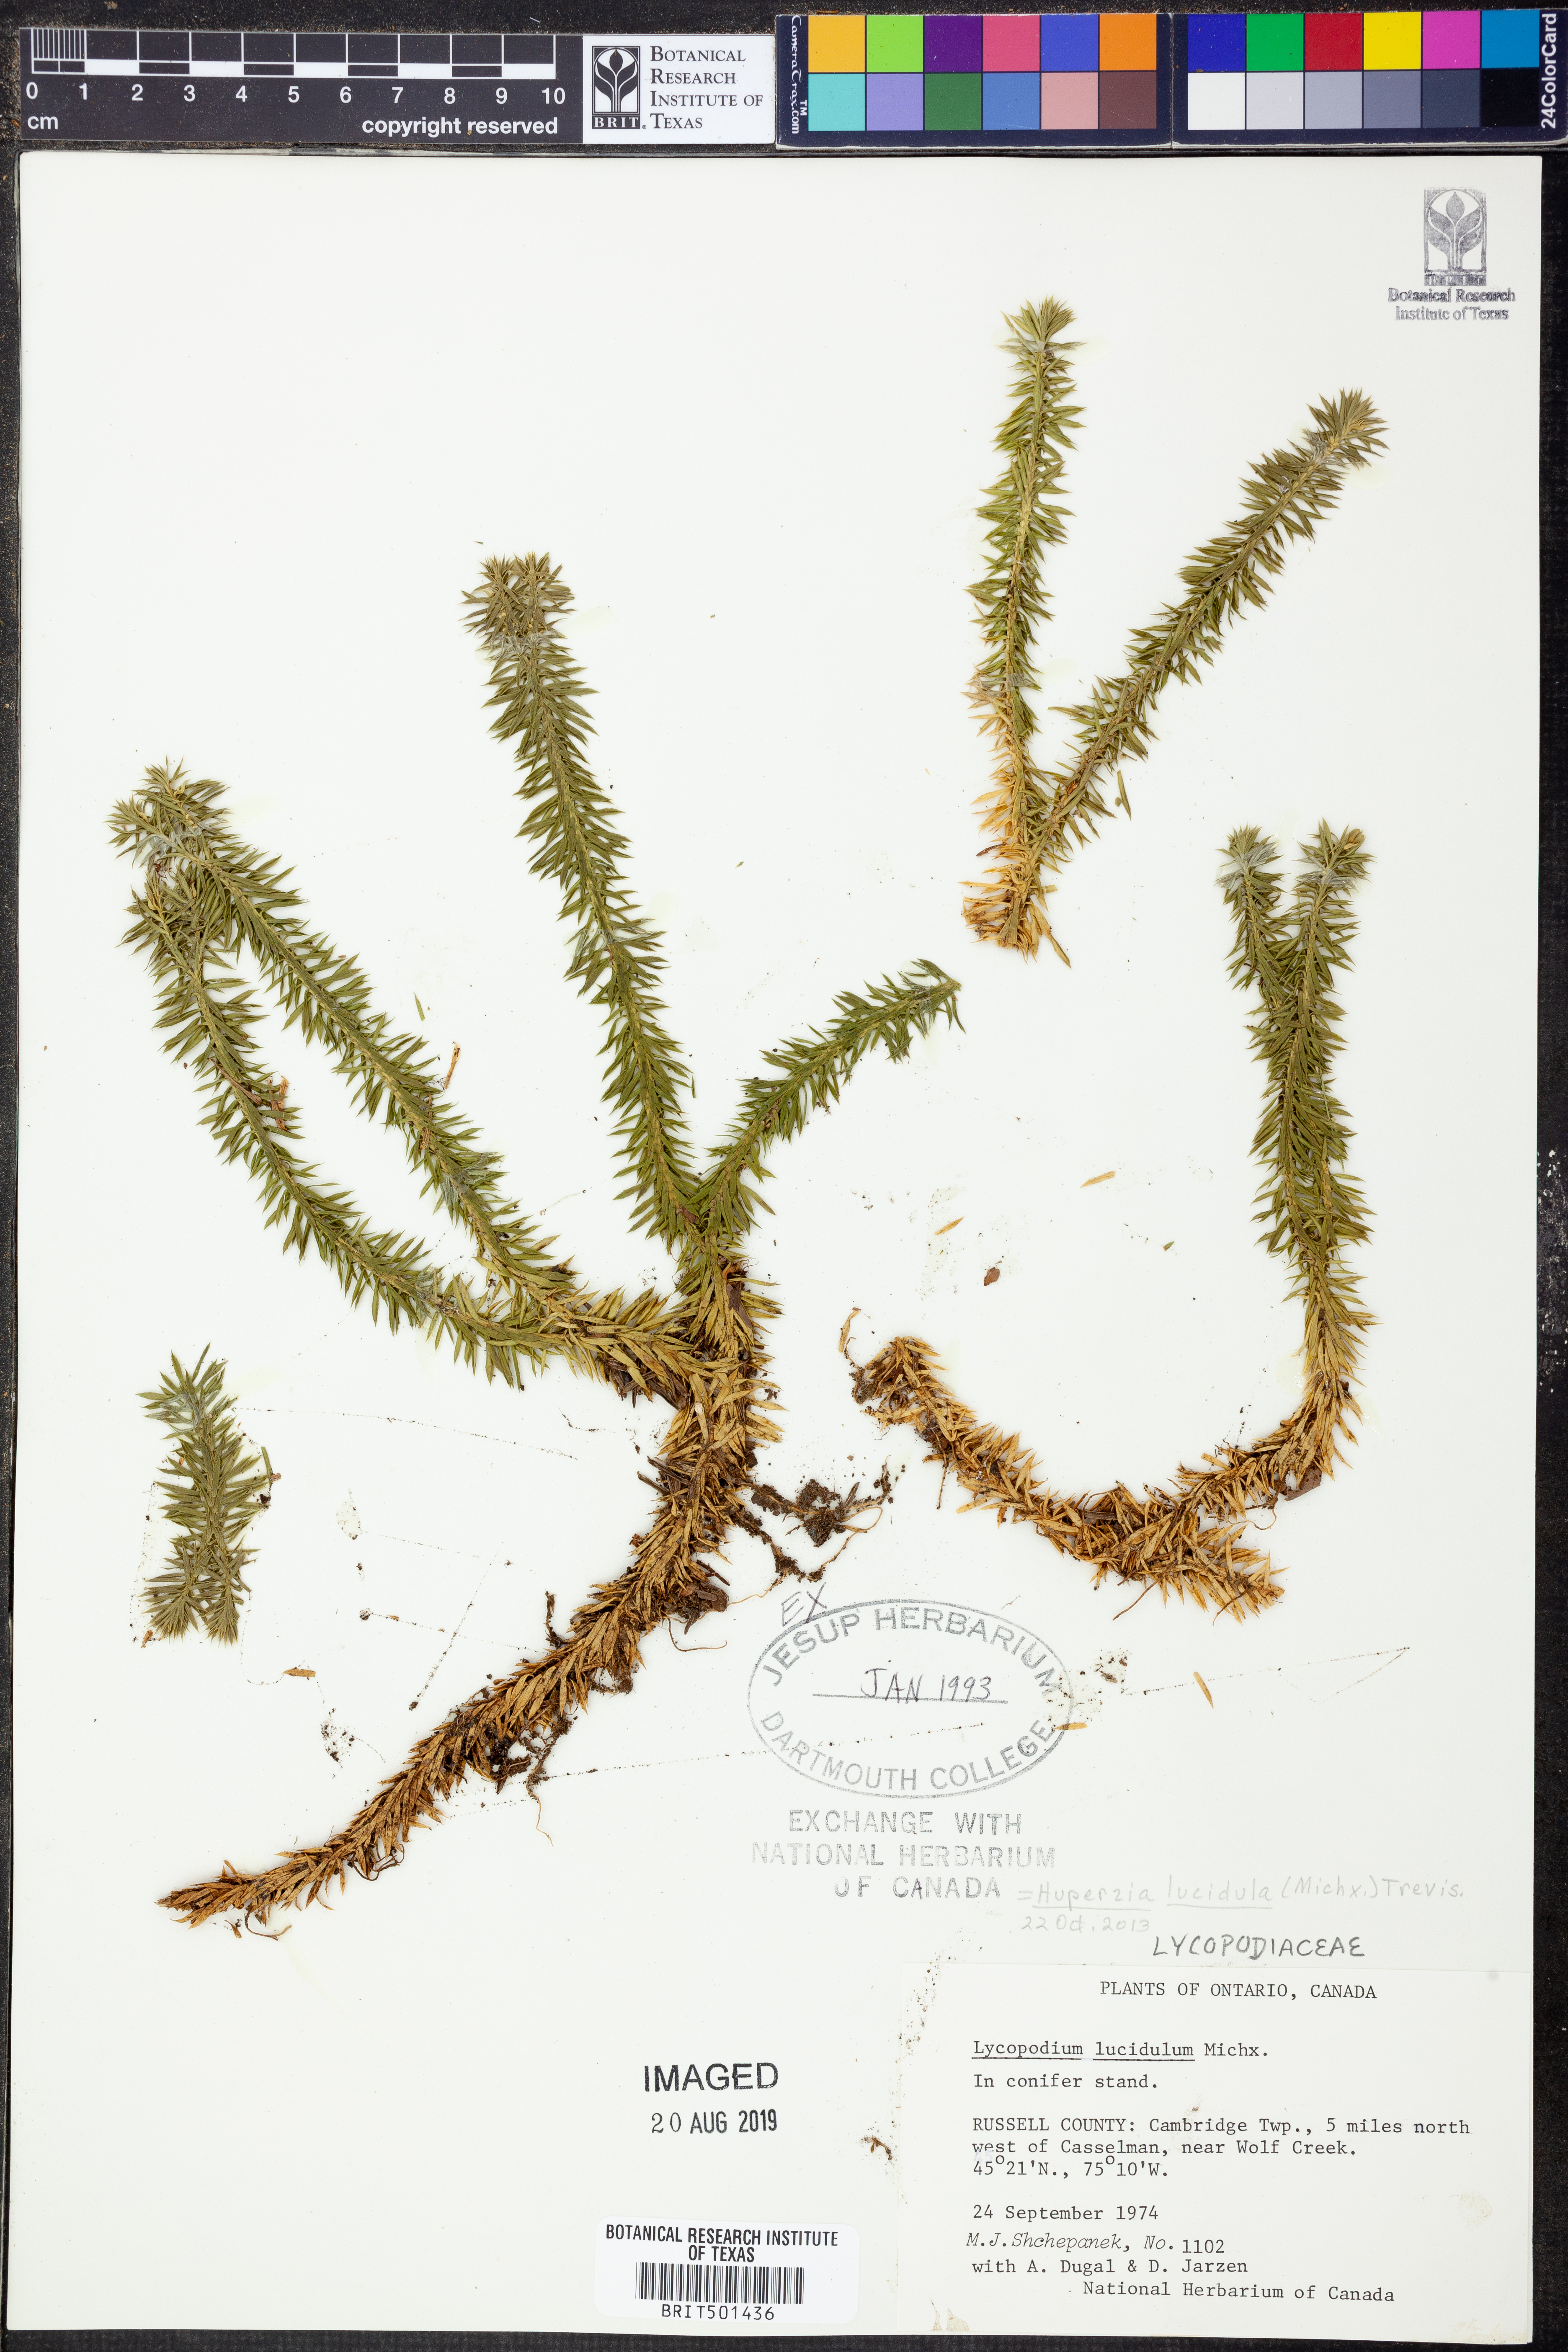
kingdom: Plantae
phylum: Tracheophyta
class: Lycopodiopsida
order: Lycopodiales
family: Lycopodiaceae
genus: Huperzia
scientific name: Huperzia lucidula
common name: Shining clubmoss
